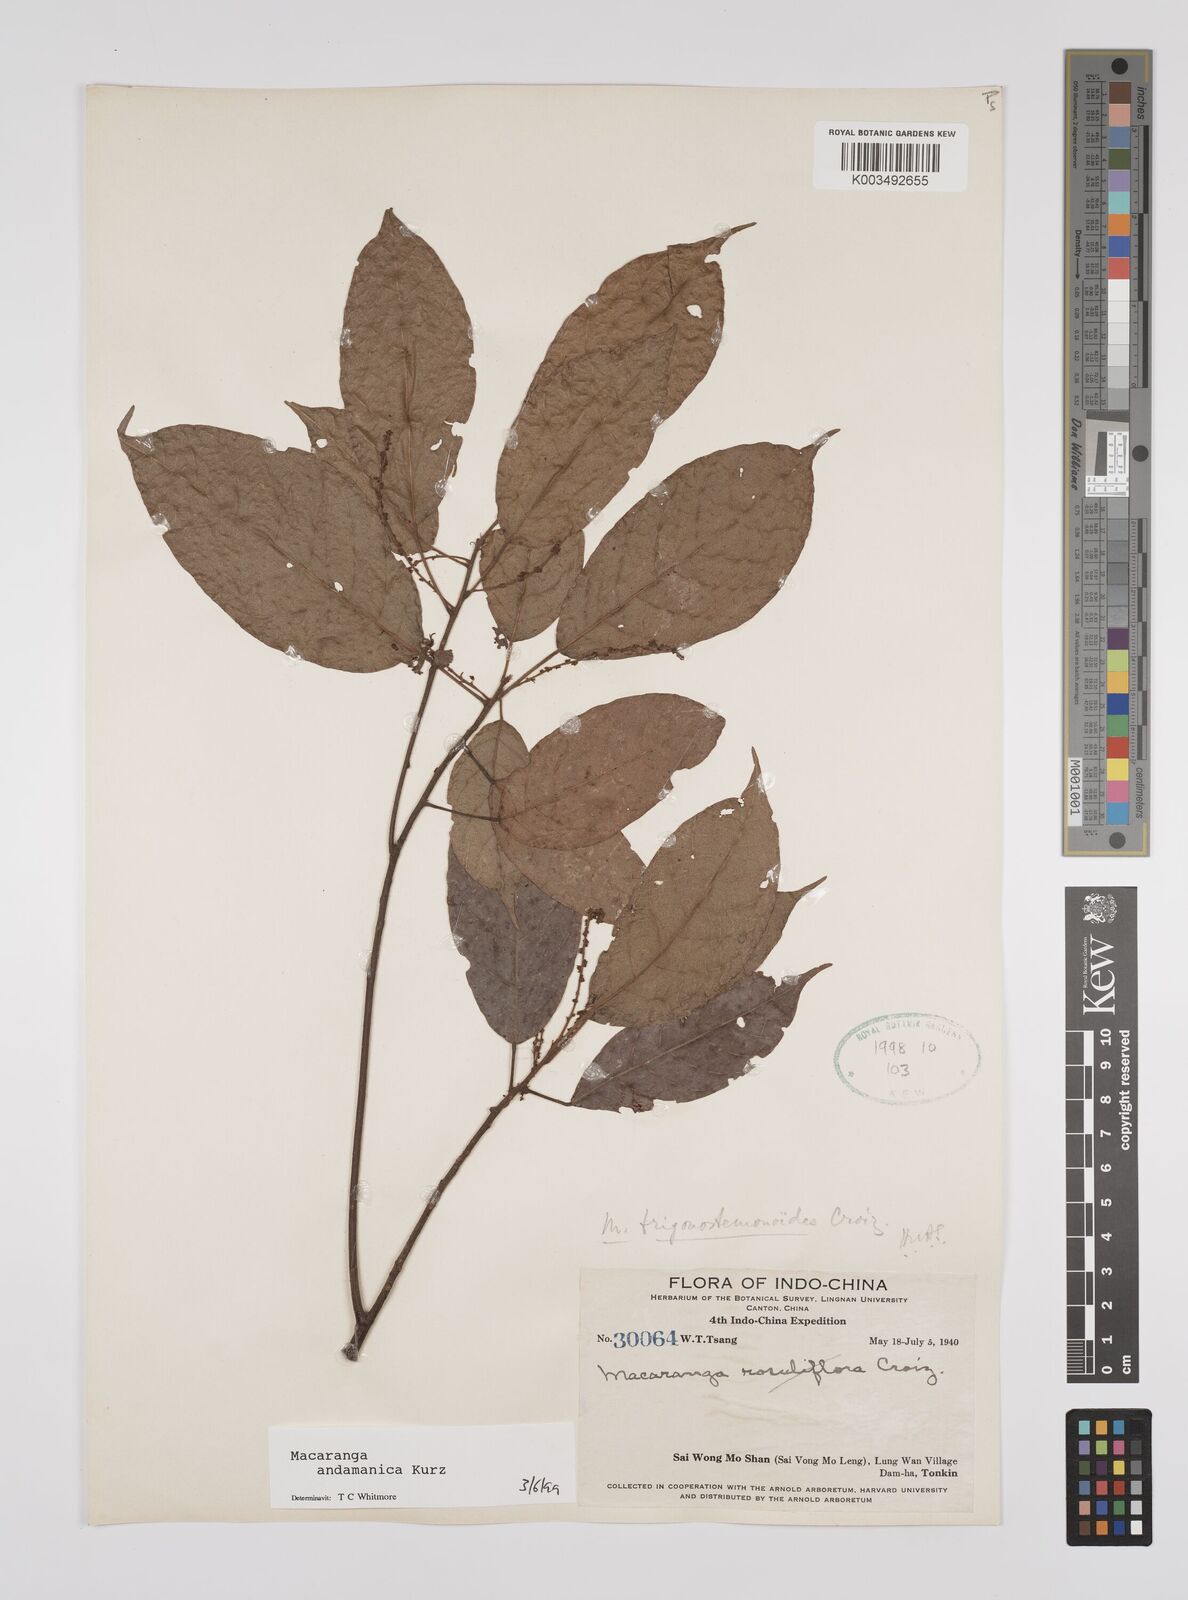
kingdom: Plantae
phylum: Tracheophyta
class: Magnoliopsida
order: Malpighiales
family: Euphorbiaceae
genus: Macaranga
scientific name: Macaranga andamanica
